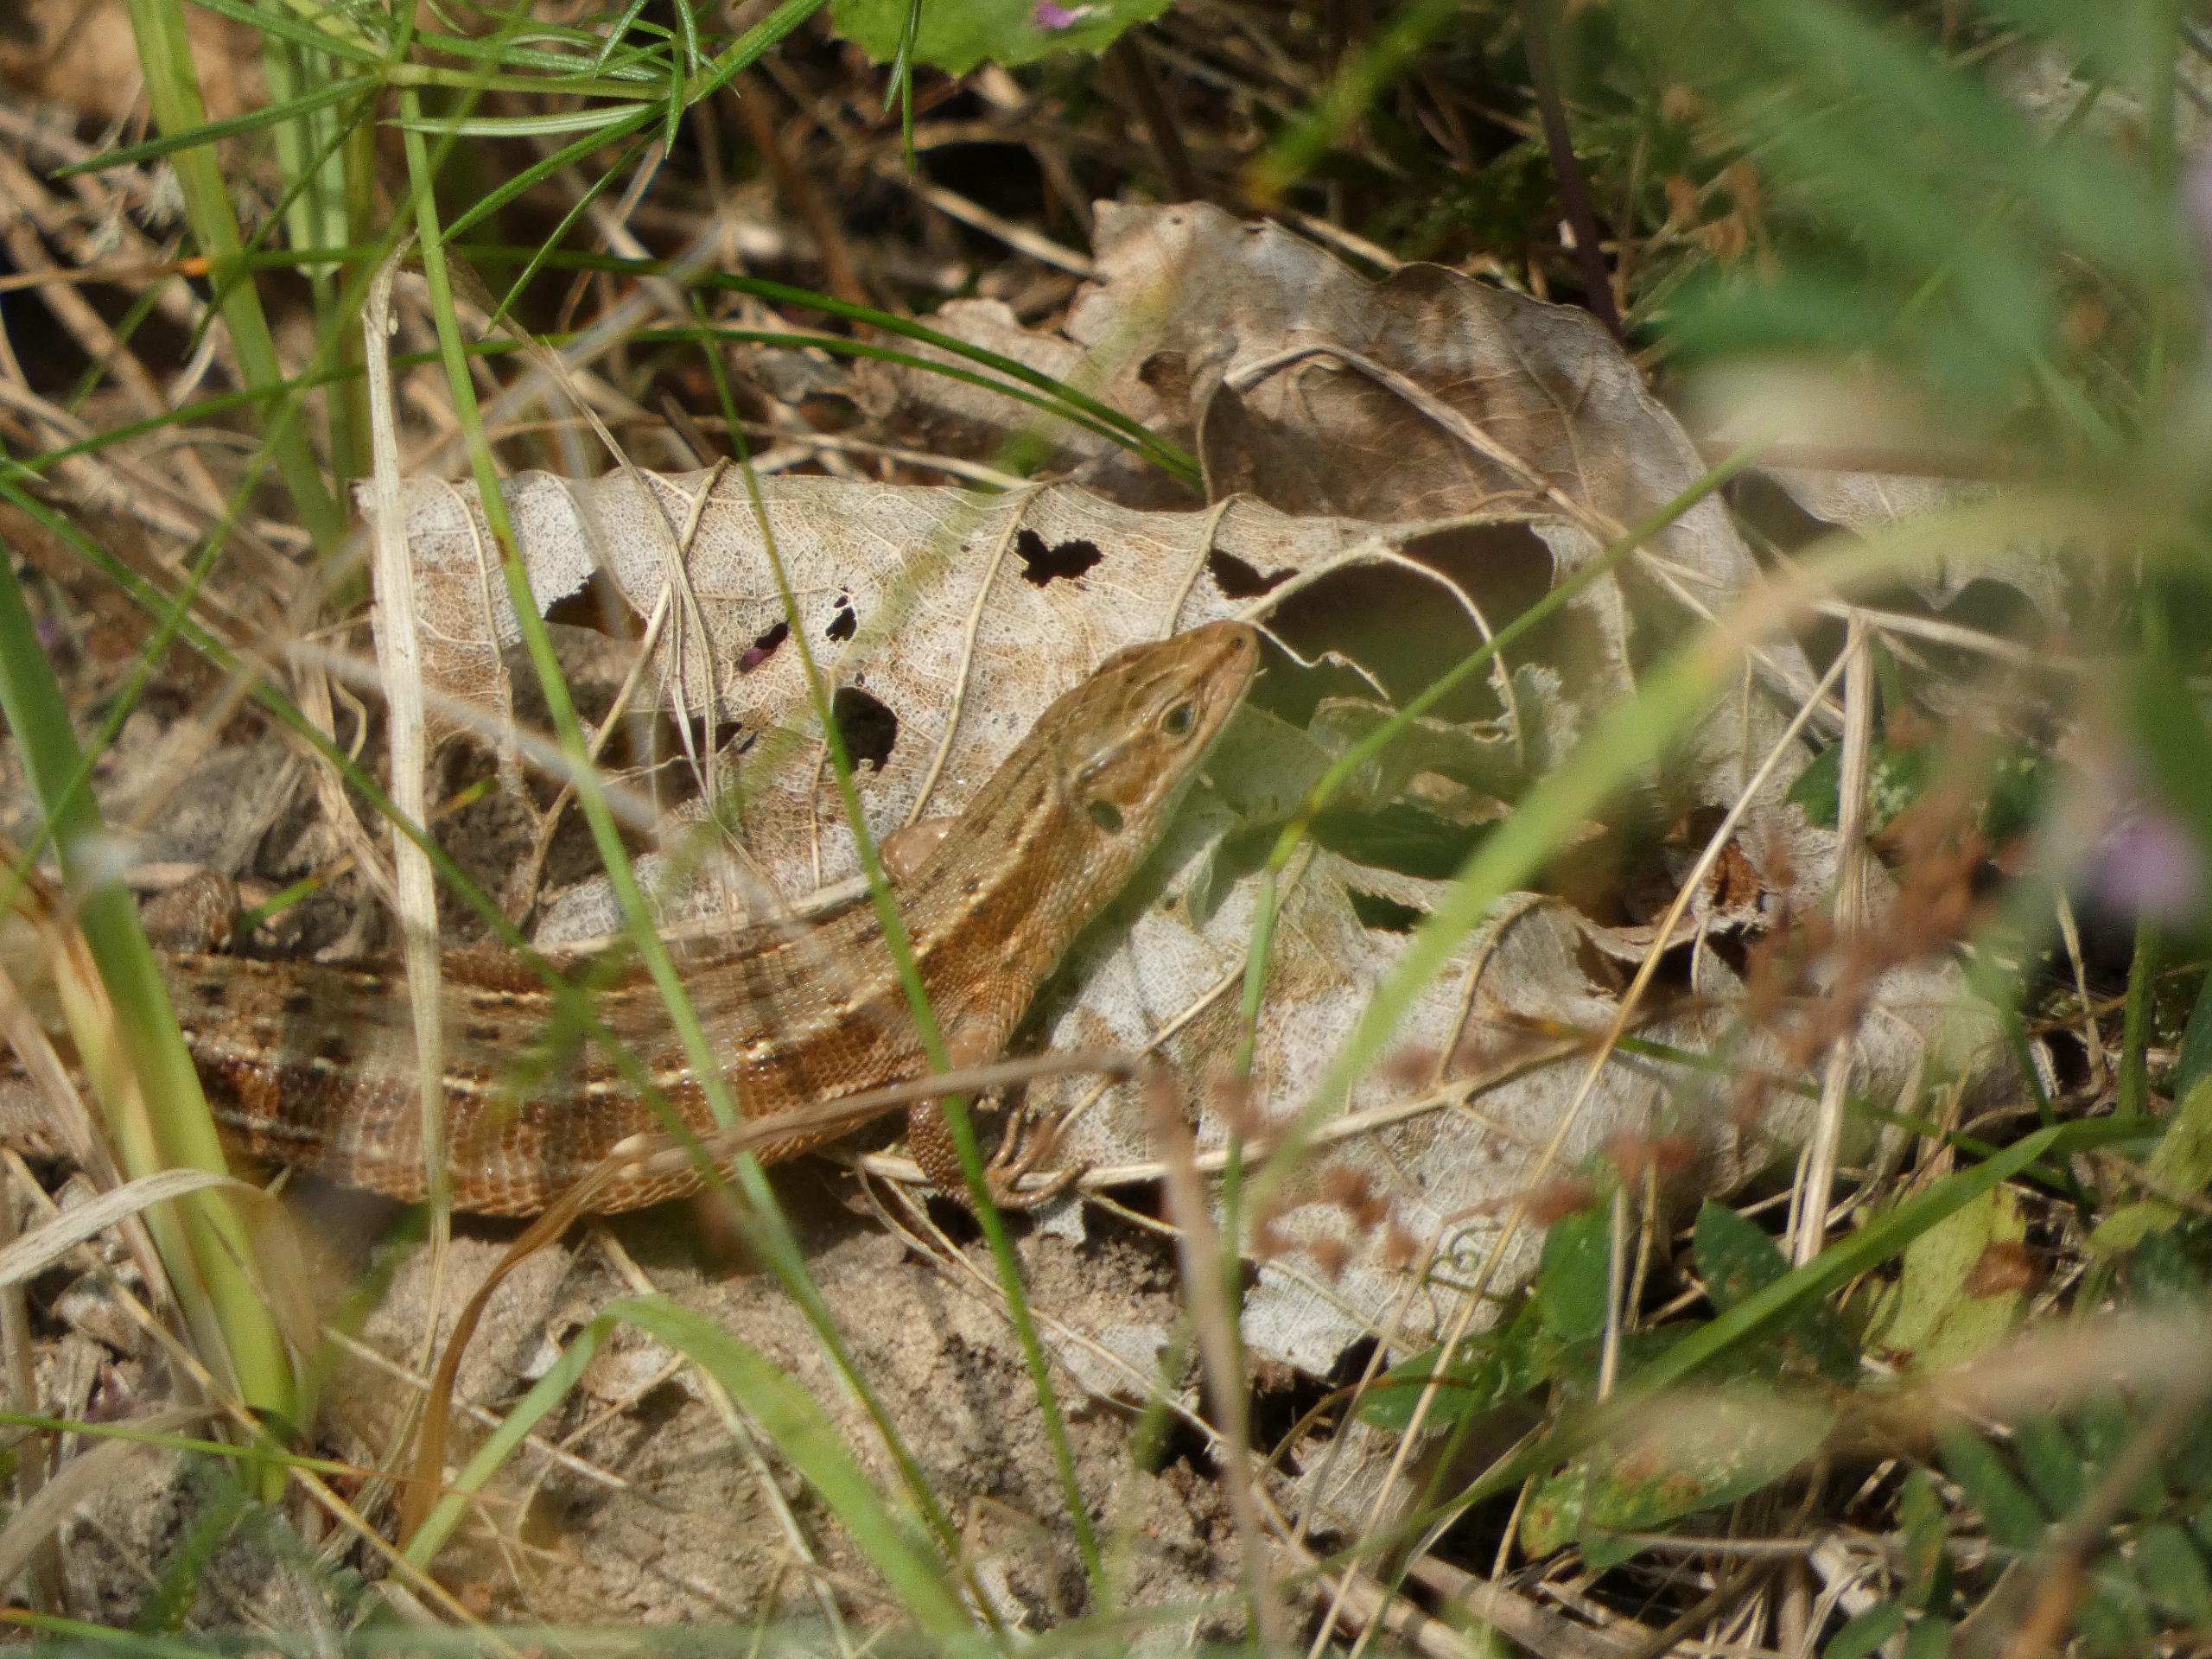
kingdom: Animalia
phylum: Chordata
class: Squamata
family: Lacertidae
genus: Zootoca
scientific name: Zootoca vivipara
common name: Skovfirben
